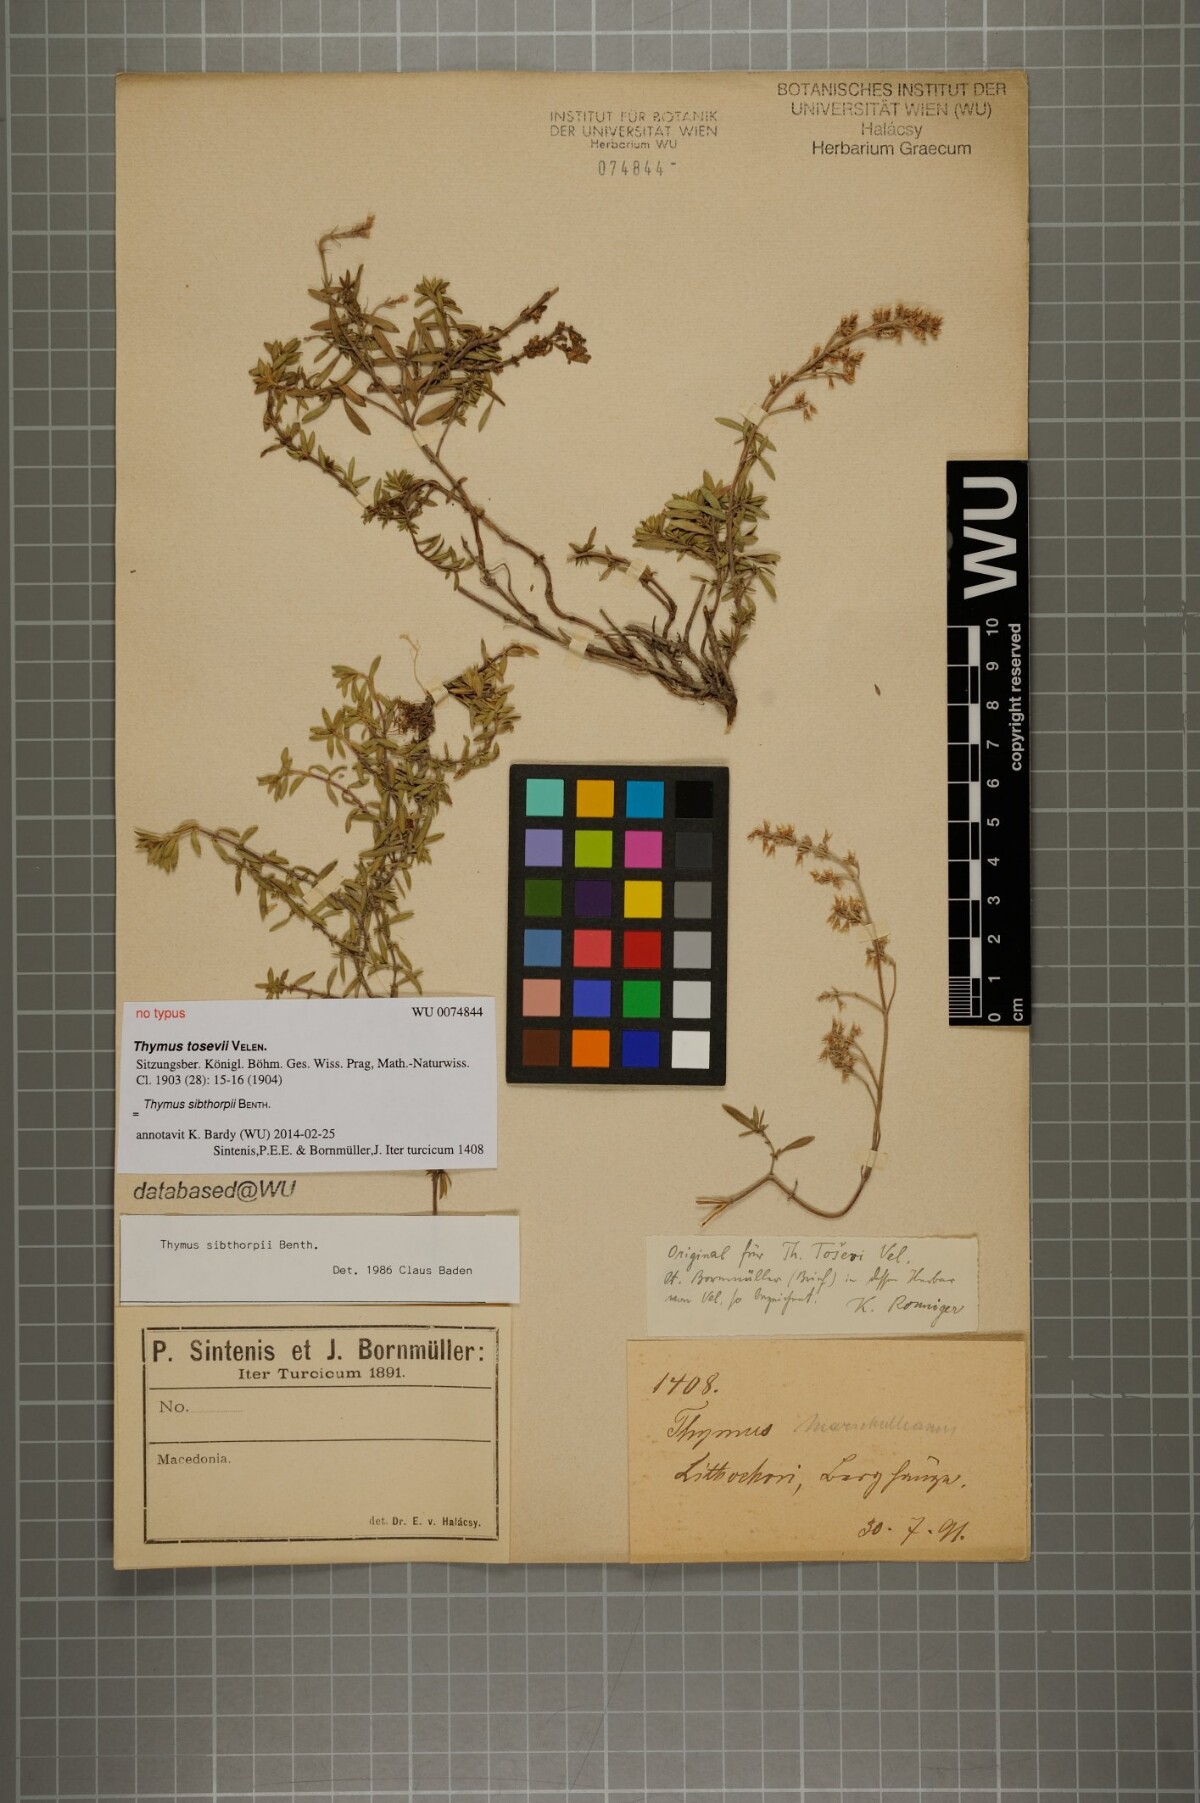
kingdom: Plantae
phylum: Tracheophyta
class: Magnoliopsida
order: Lamiales
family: Lamiaceae
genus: Thymus
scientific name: Thymus sibthorpii
